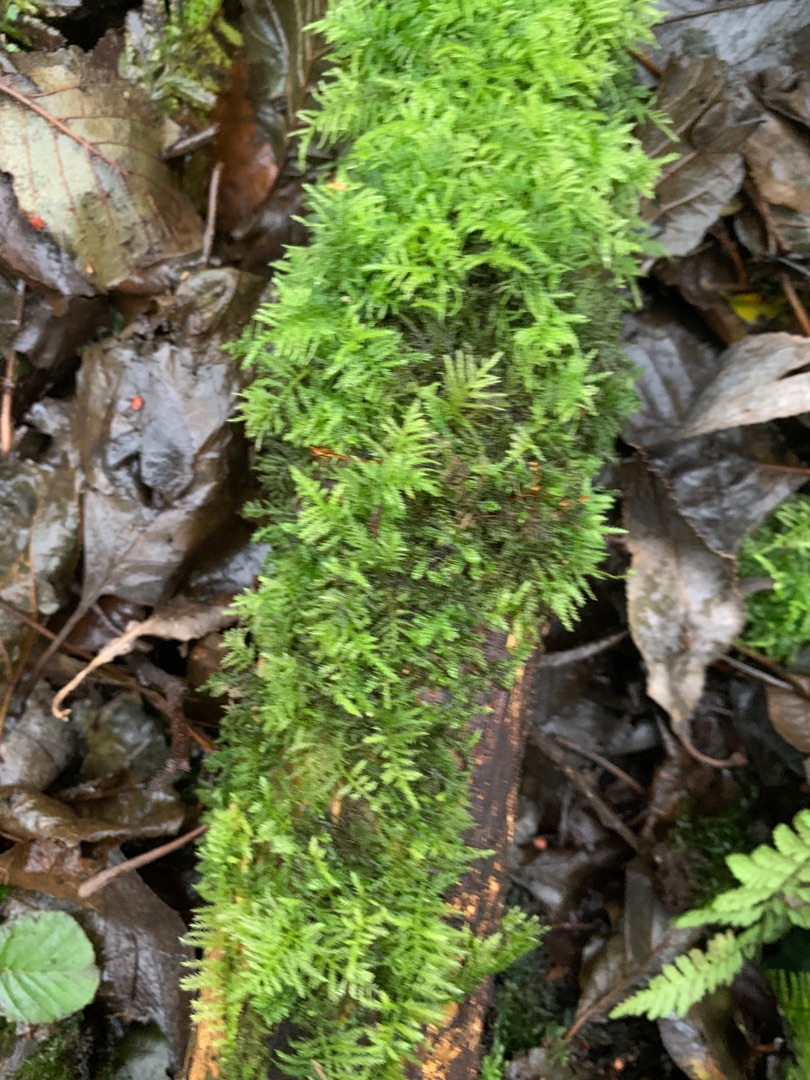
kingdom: Plantae
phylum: Bryophyta
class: Bryopsida
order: Hypnales
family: Brachytheciaceae
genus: Kindbergia
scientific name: Kindbergia praelonga
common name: Forskelligbladet vortetand
